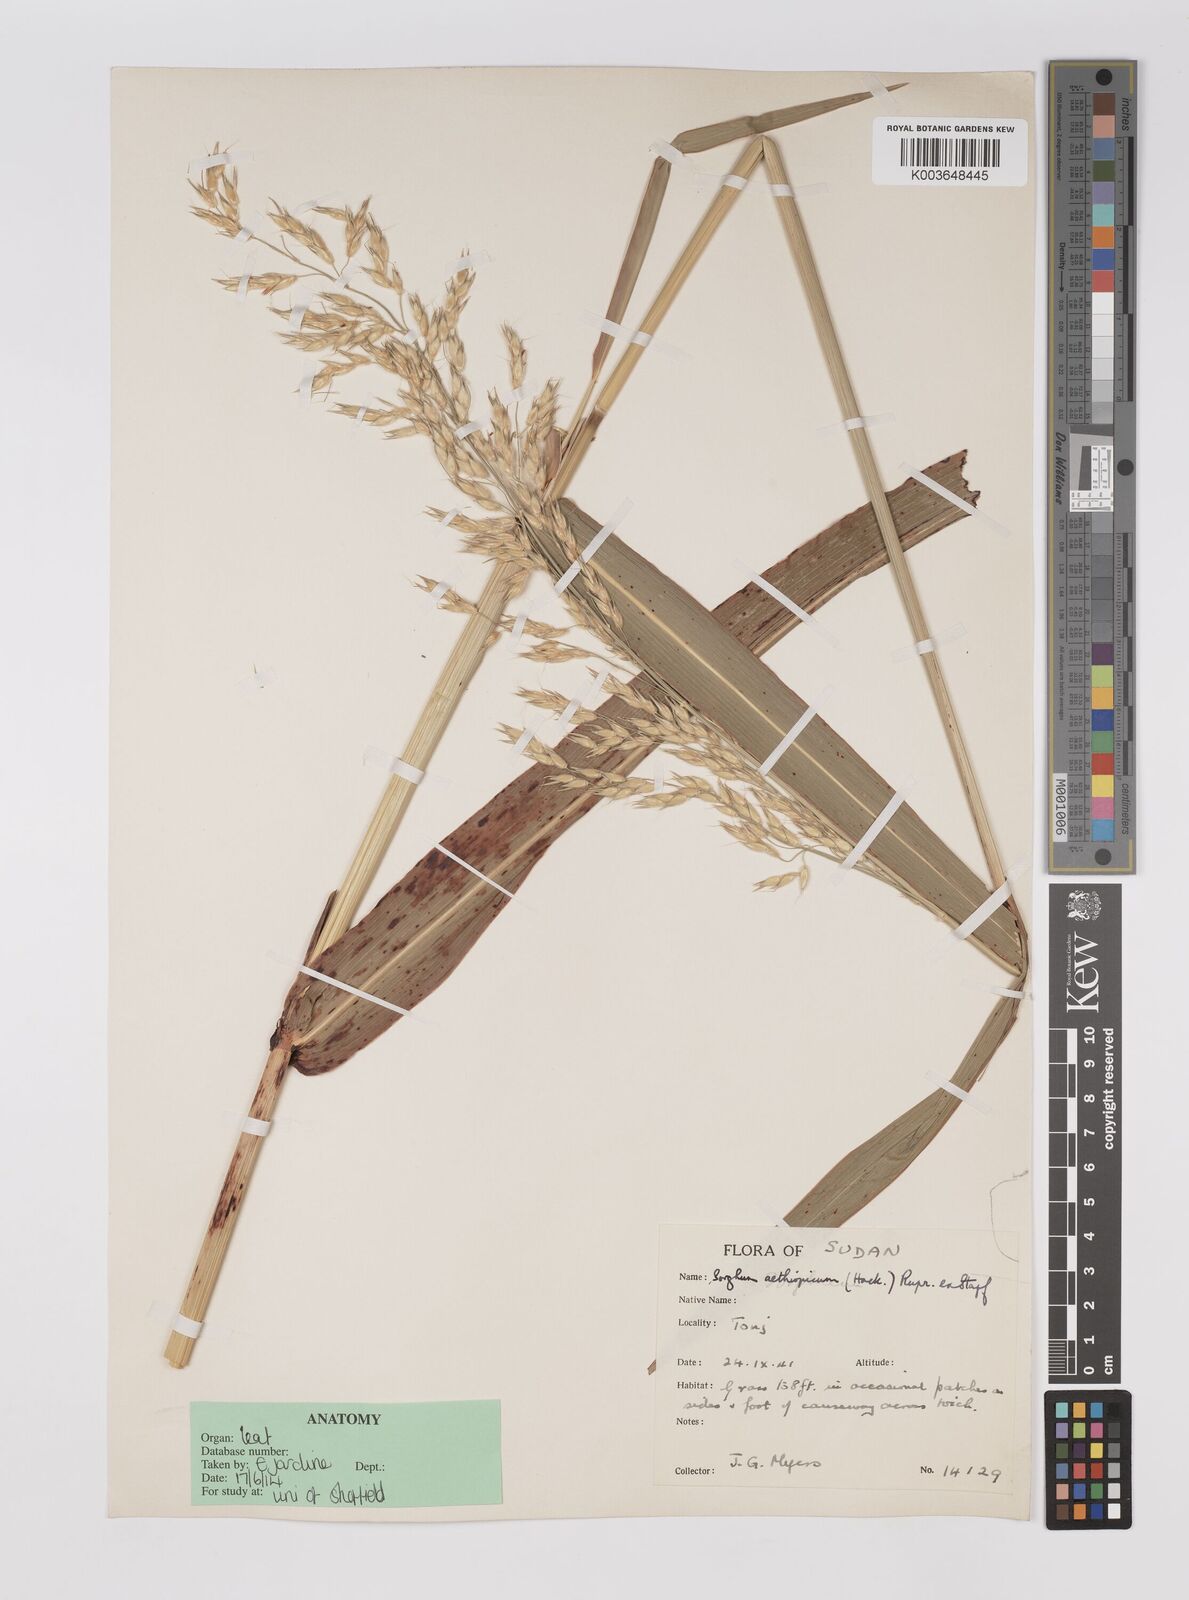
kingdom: Plantae
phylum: Tracheophyta
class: Liliopsida
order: Poales
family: Poaceae
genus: Sorghum
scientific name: Sorghum arundinaceum
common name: Sorghum
